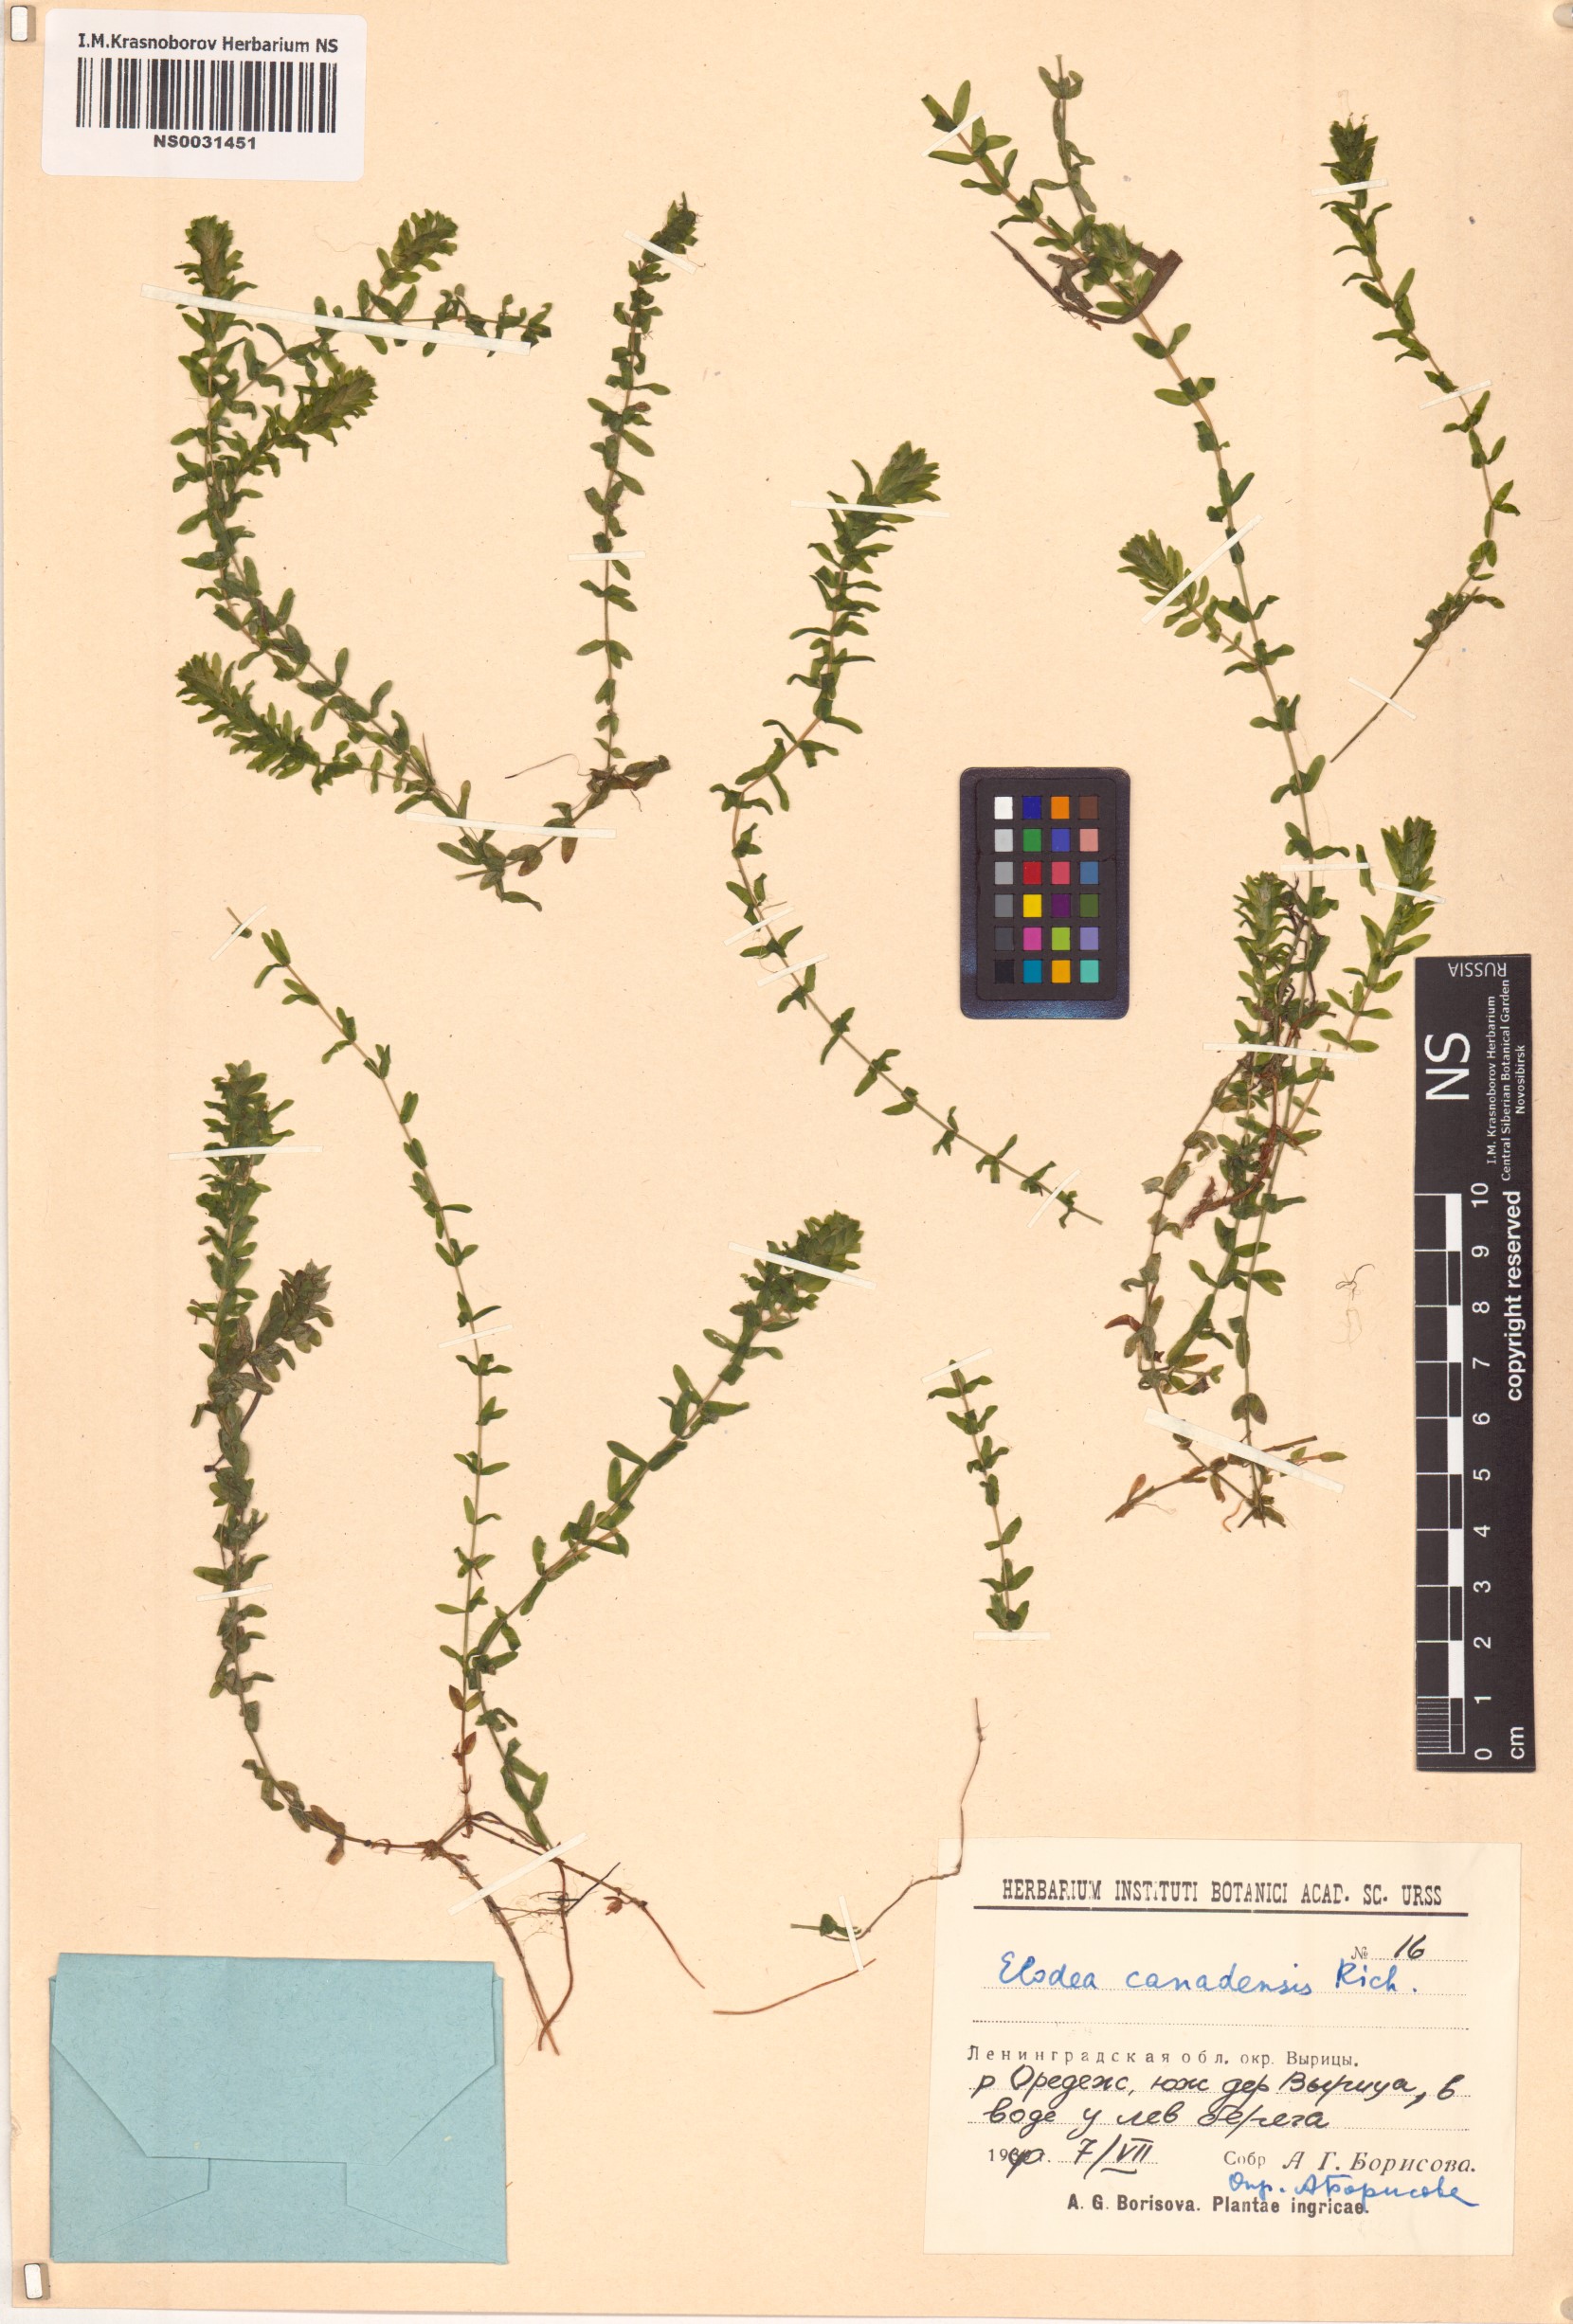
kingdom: Plantae
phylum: Tracheophyta
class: Liliopsida
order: Alismatales
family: Hydrocharitaceae
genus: Elodea
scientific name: Elodea canadensis
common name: Canadian waterweed
